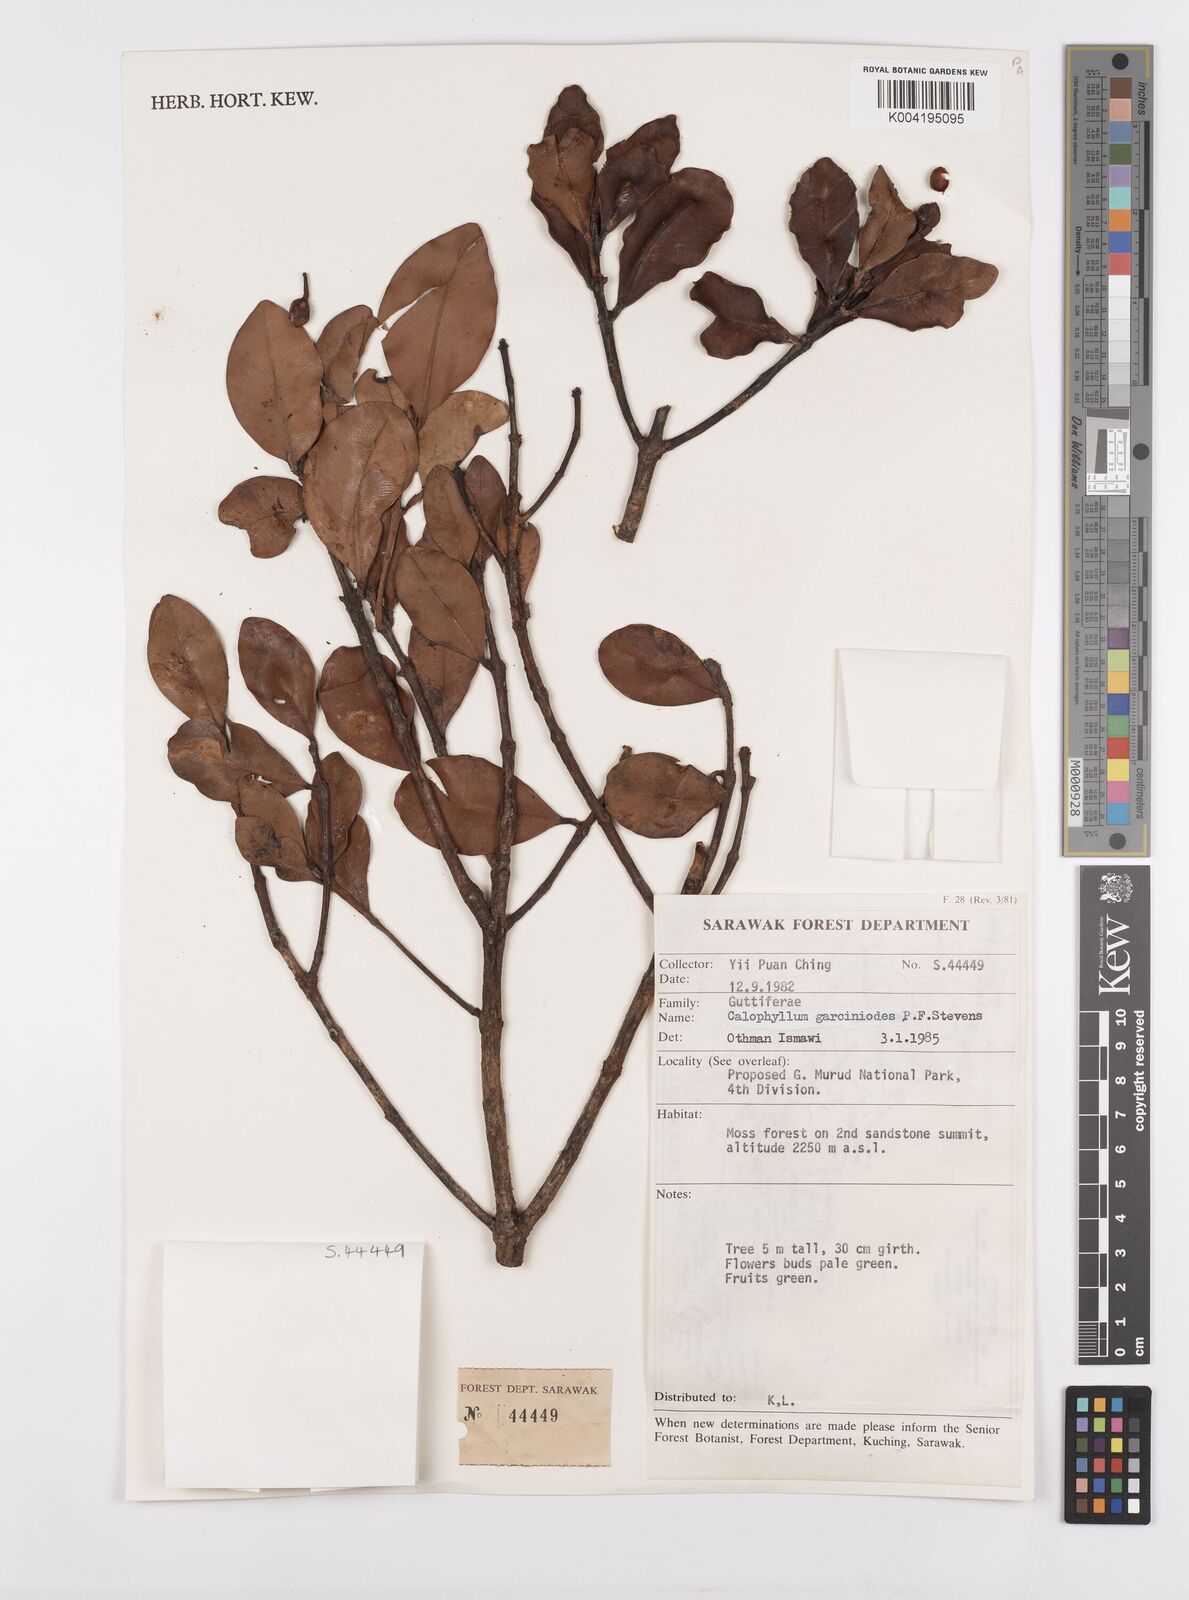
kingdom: Plantae
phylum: Tracheophyta
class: Magnoliopsida
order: Malpighiales
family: Calophyllaceae
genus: Calophyllum
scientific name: Calophyllum garcinioides
